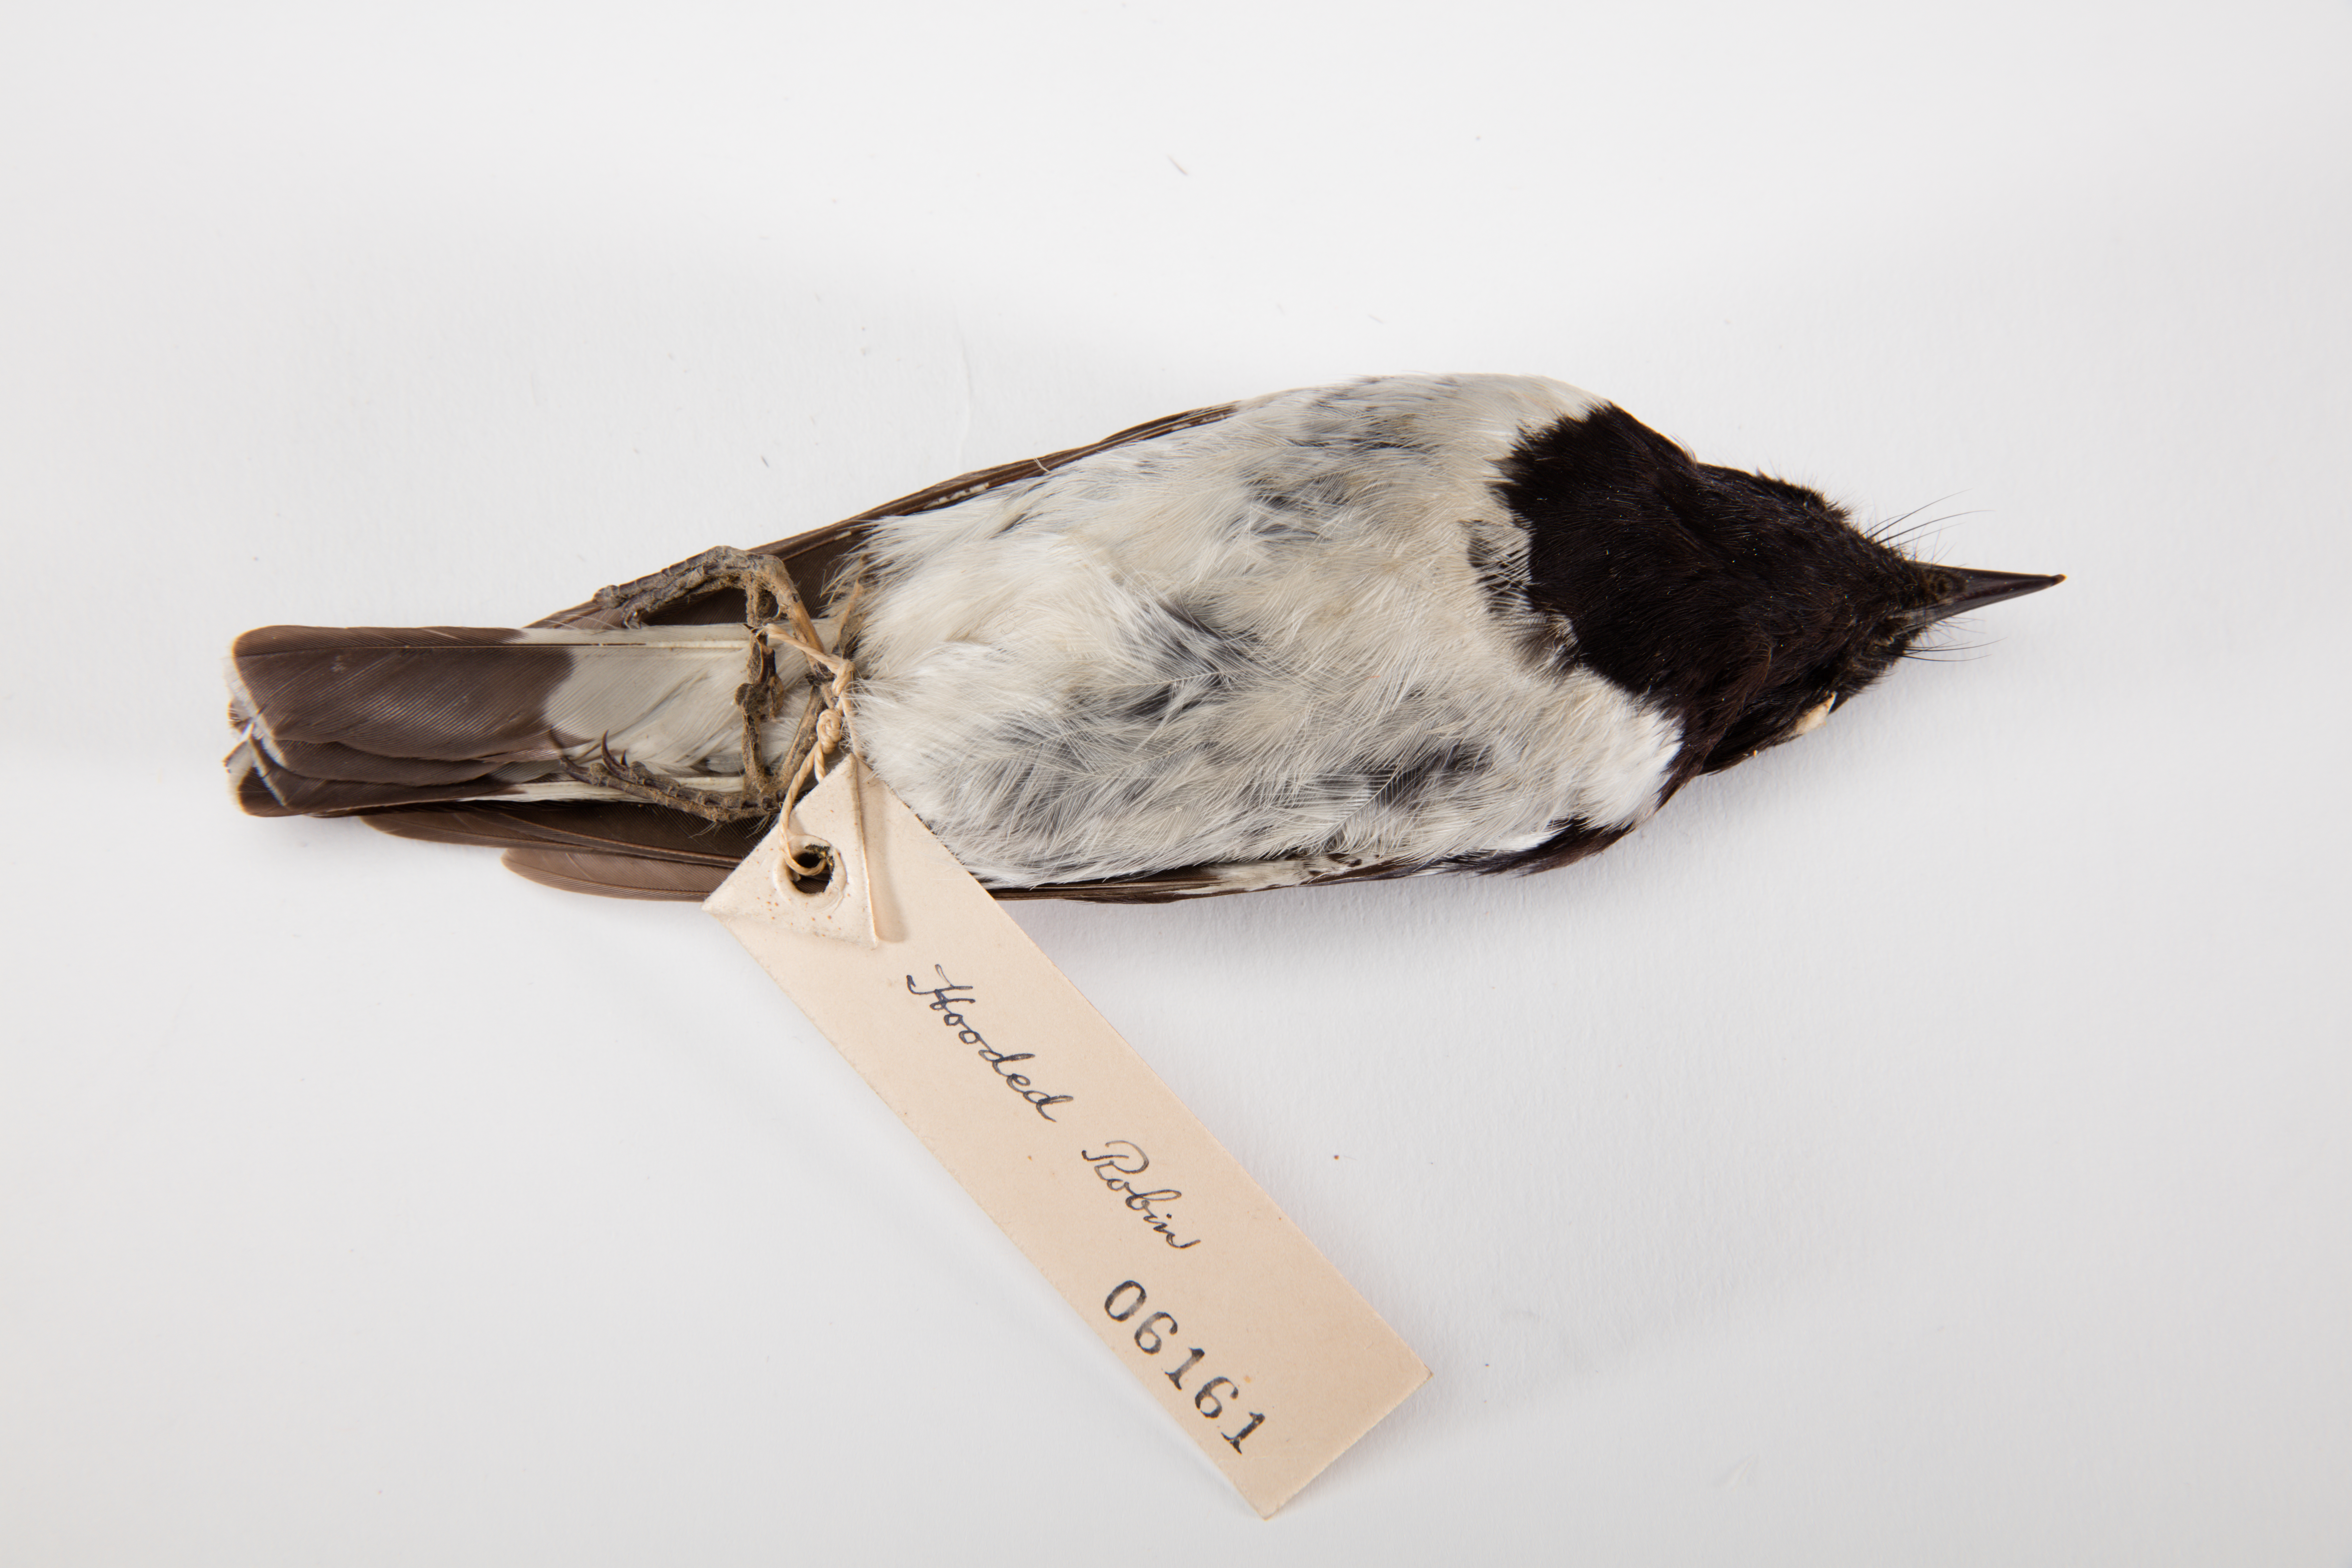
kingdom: Animalia
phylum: Chordata
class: Aves
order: Passeriformes
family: Petroicidae
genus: Melanodryas
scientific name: Melanodryas cucullata
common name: Hooded robin
